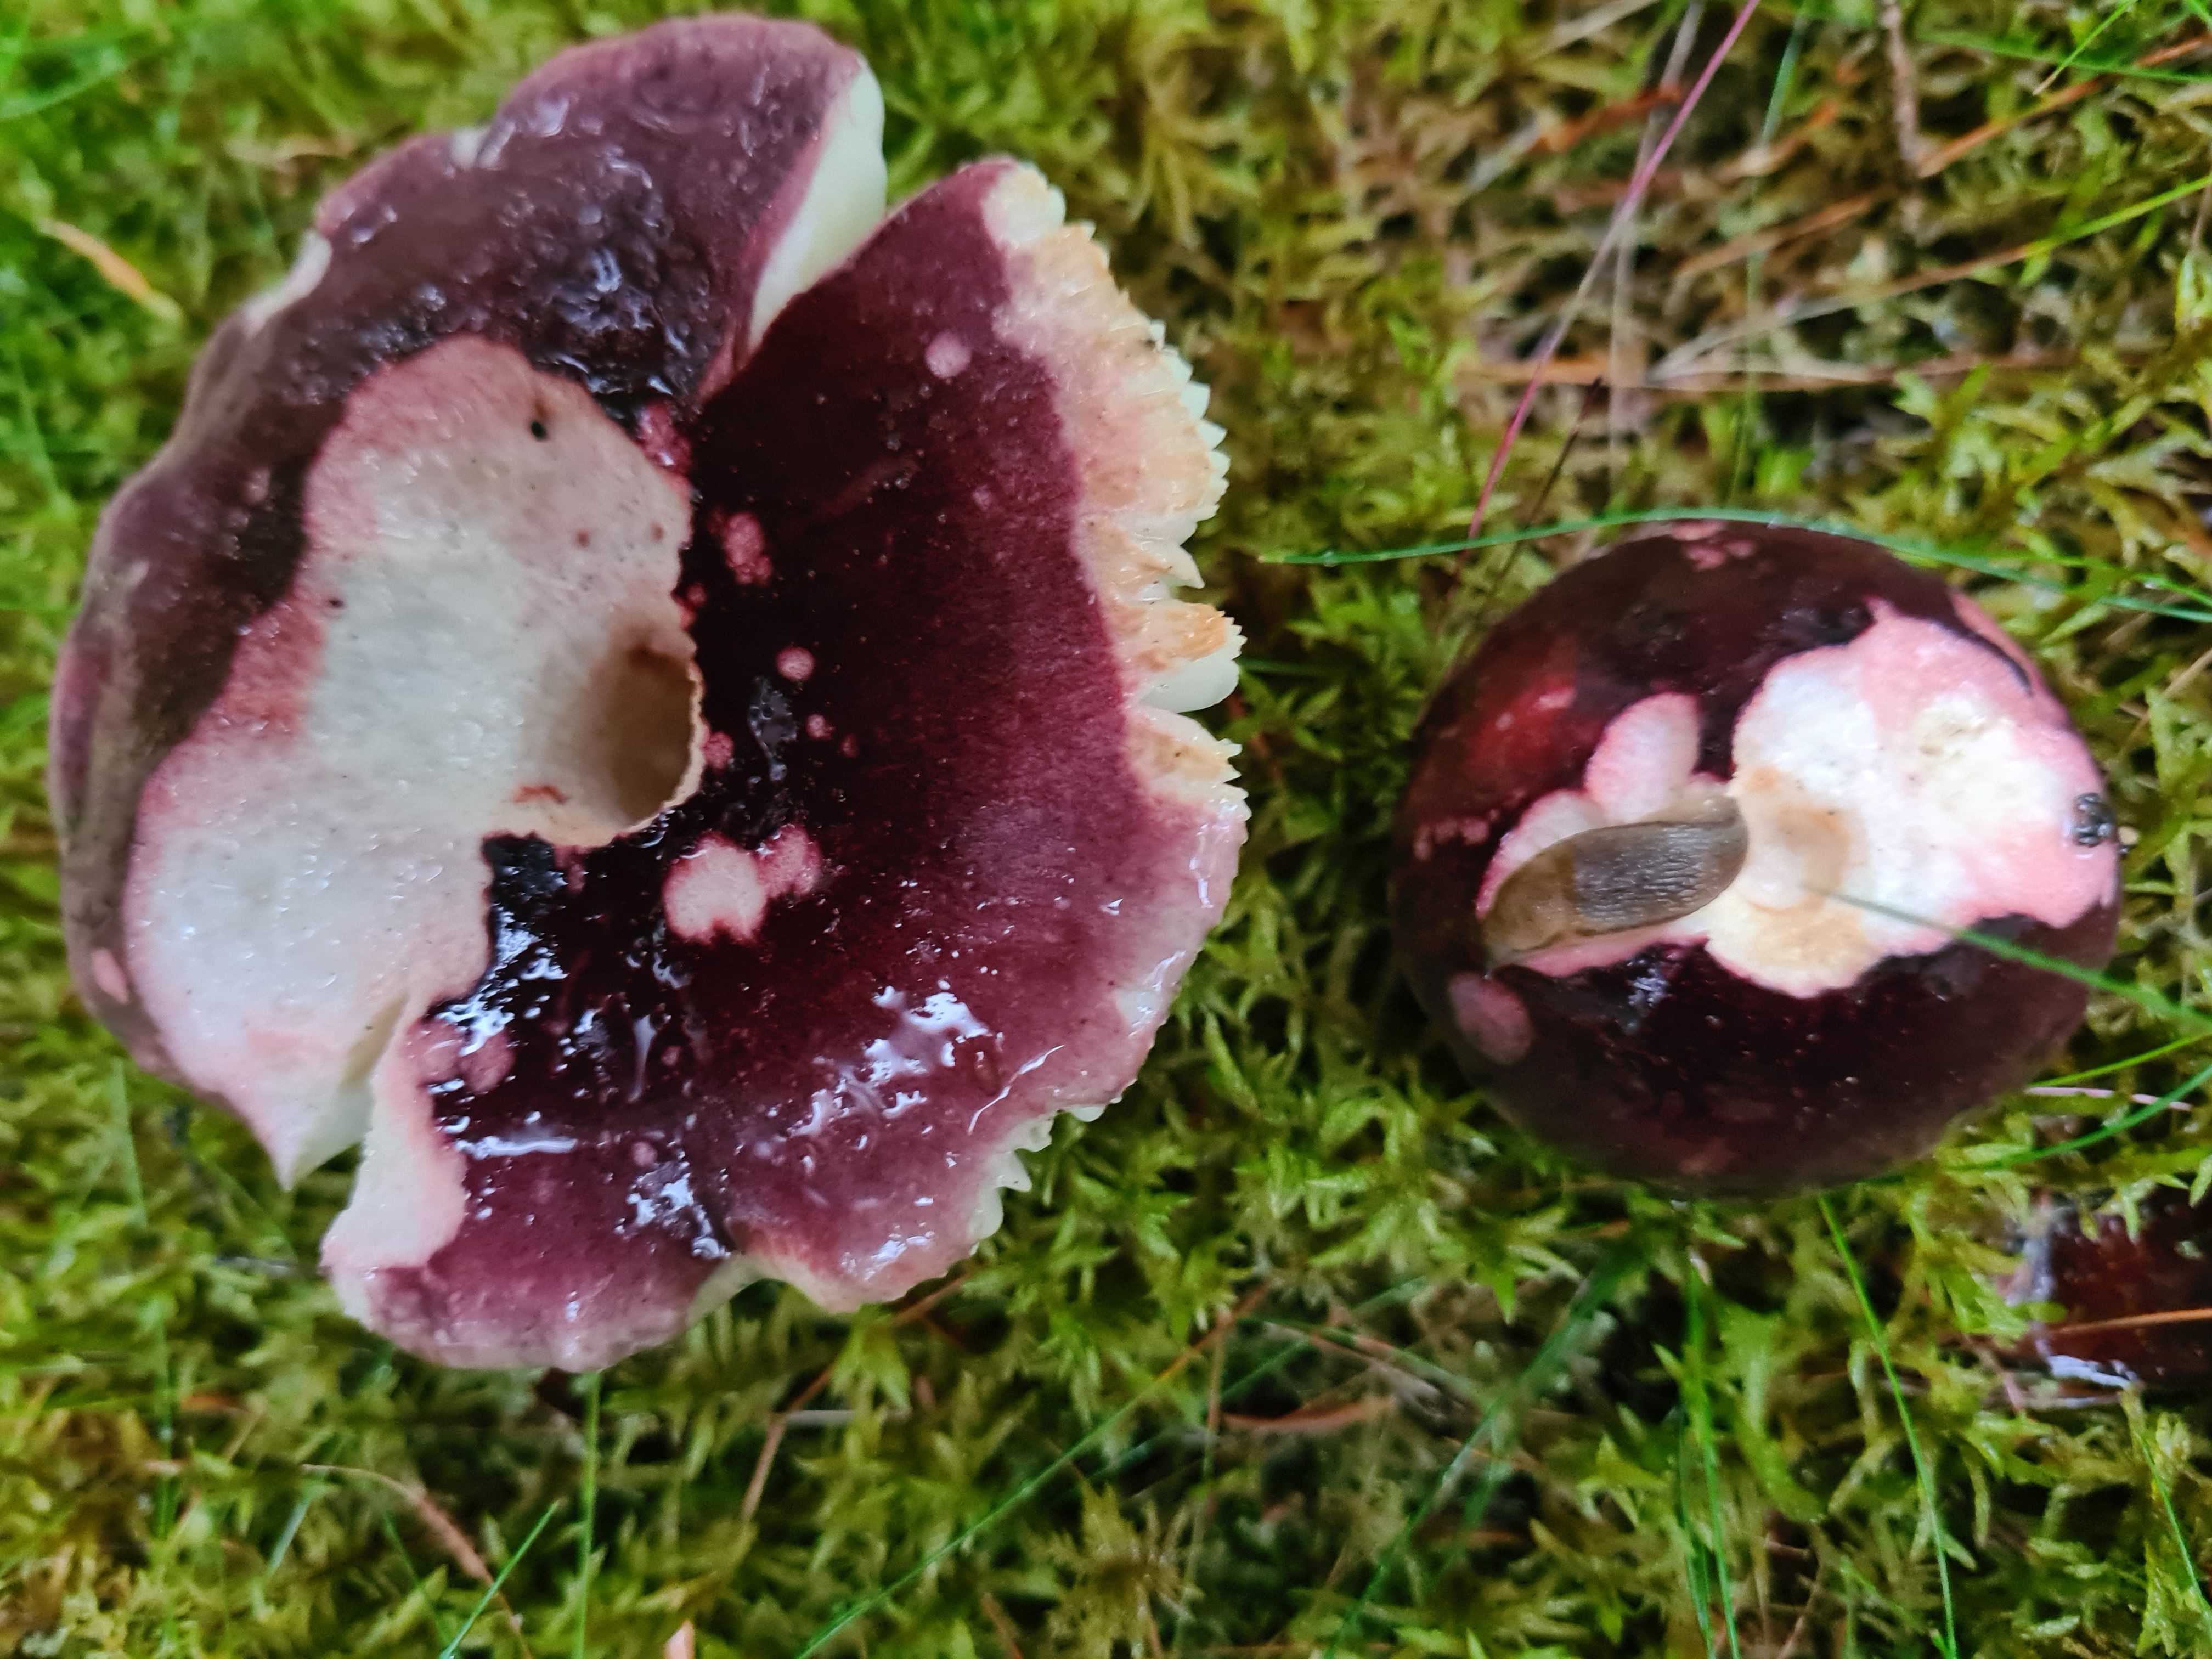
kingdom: Fungi
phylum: Basidiomycota
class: Agaricomycetes
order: Russulales
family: Russulaceae
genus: Russula
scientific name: Russula sardonia
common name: citronbladet skørhat
